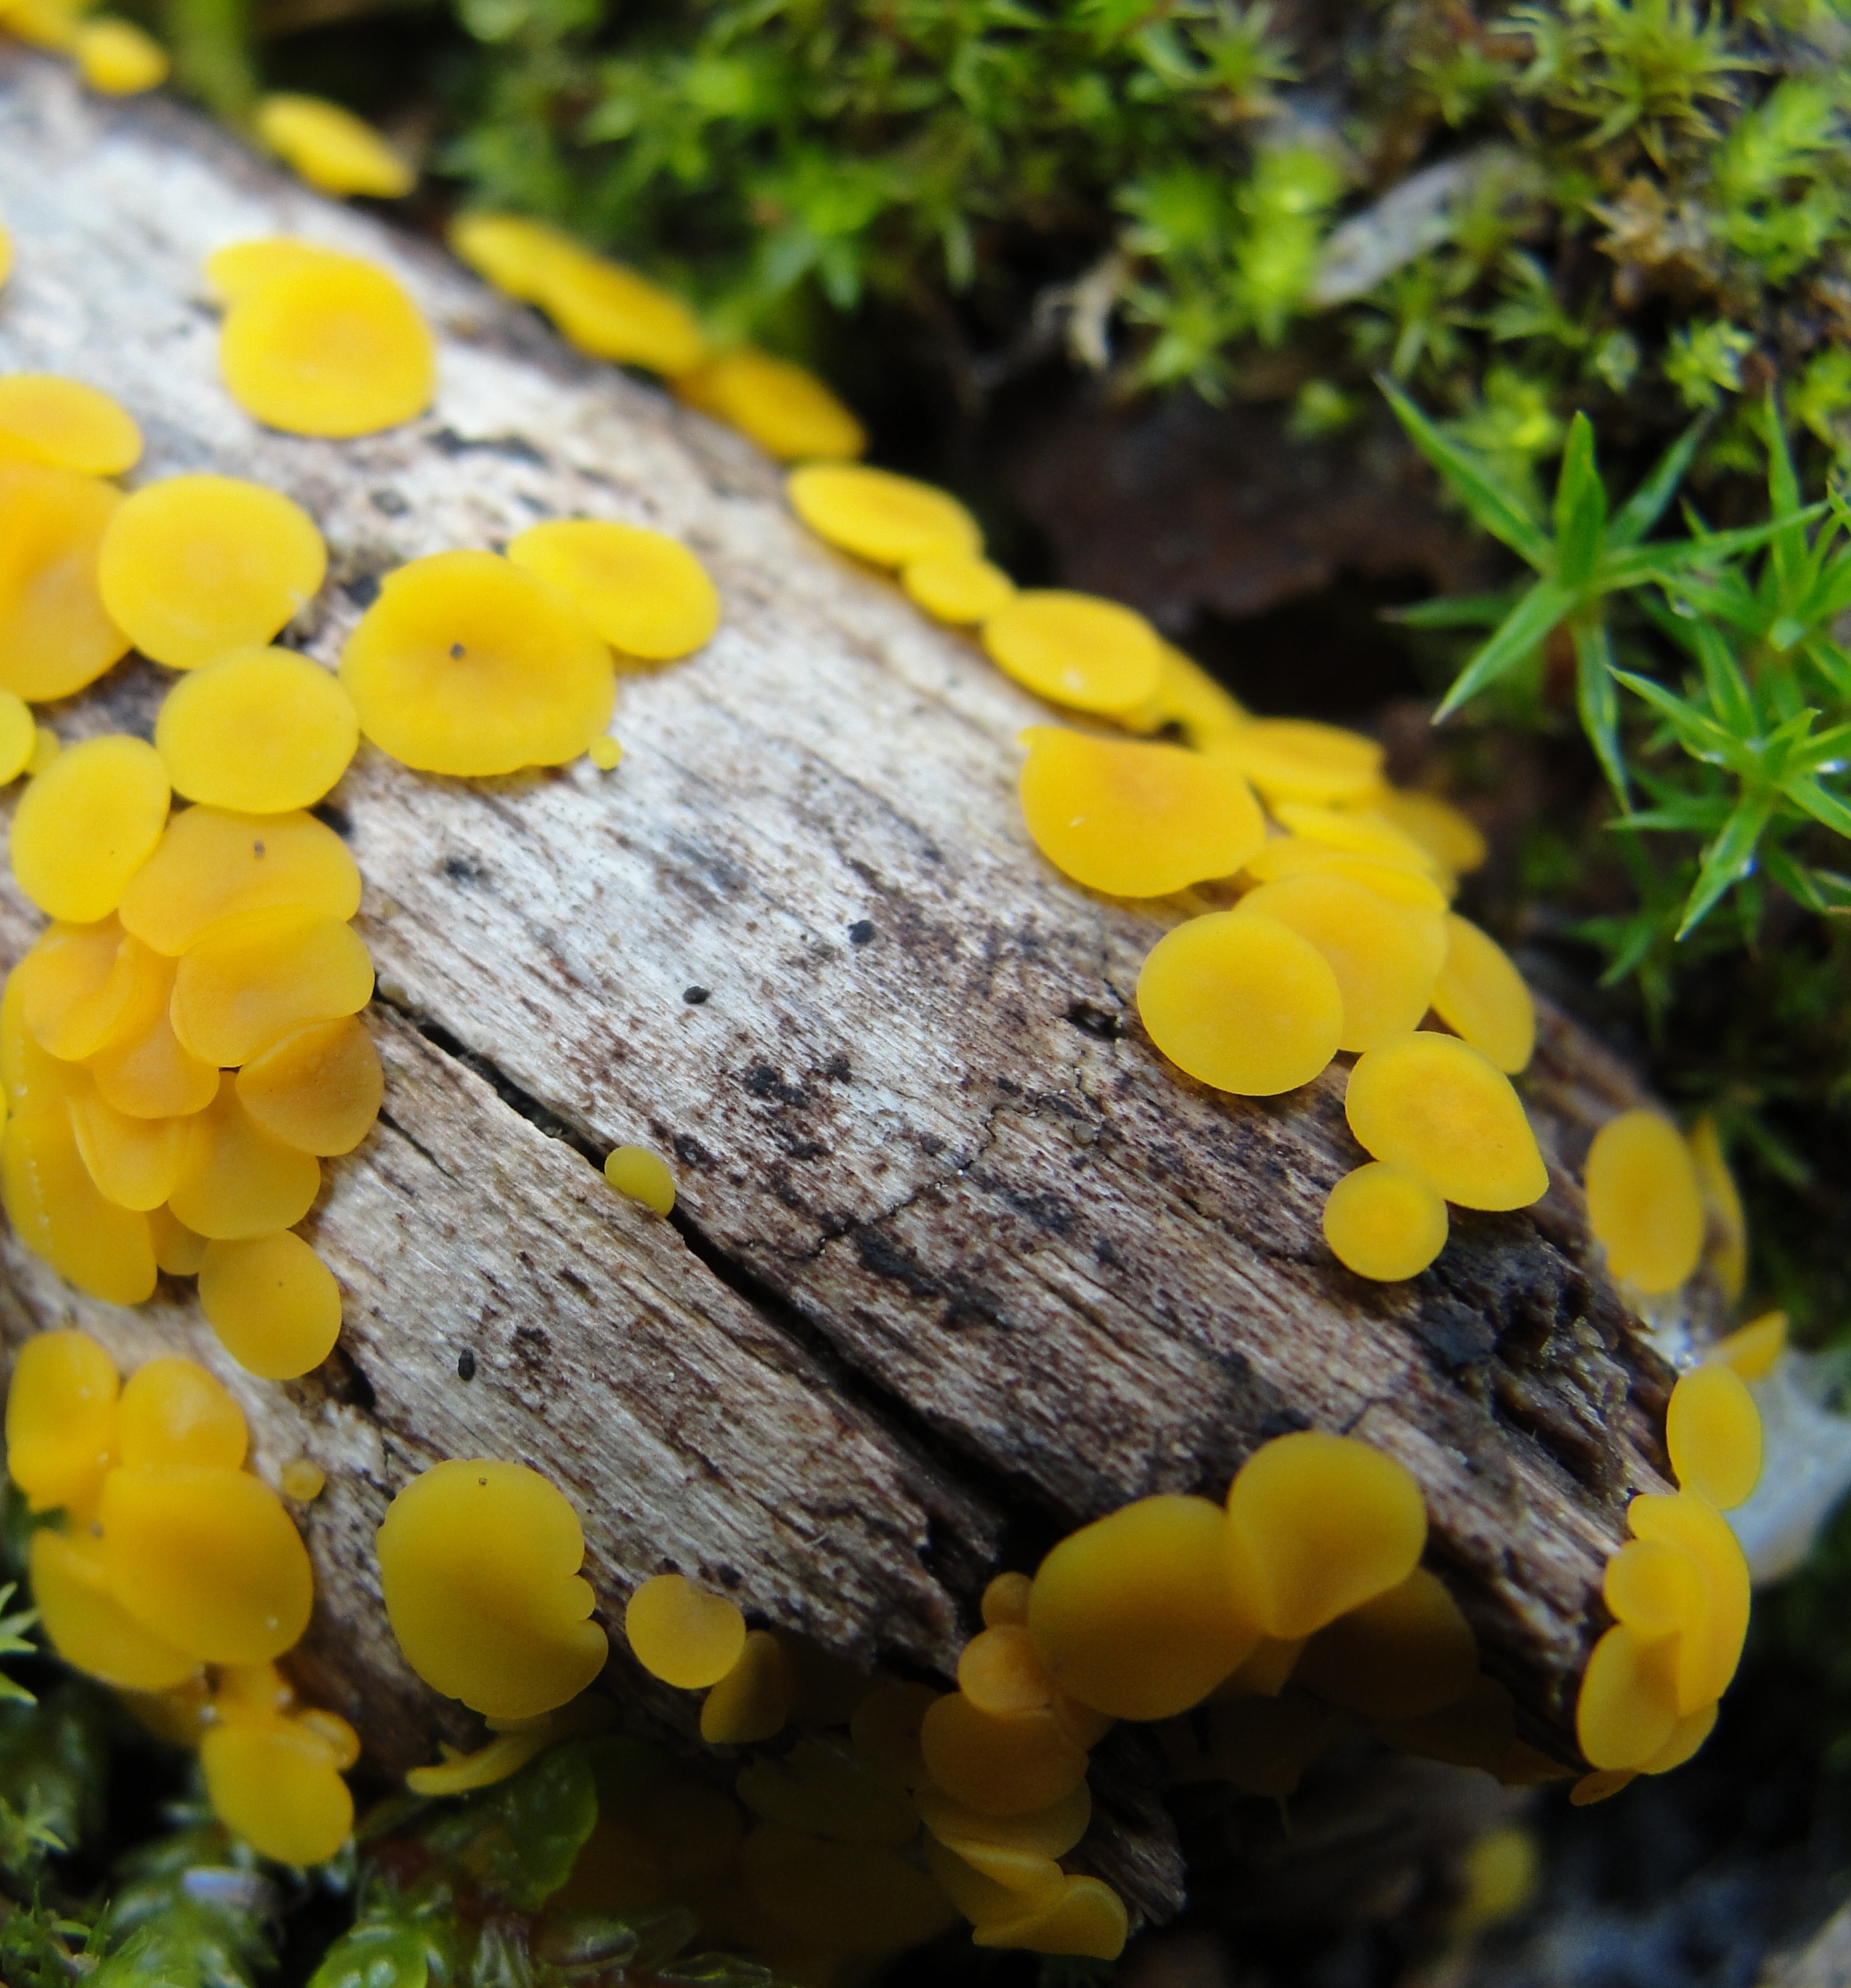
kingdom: Fungi
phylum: Ascomycota
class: Leotiomycetes
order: Helotiales
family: Pezizellaceae
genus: Calycina
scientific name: Calycina citrina
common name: Yellow fairy cups
